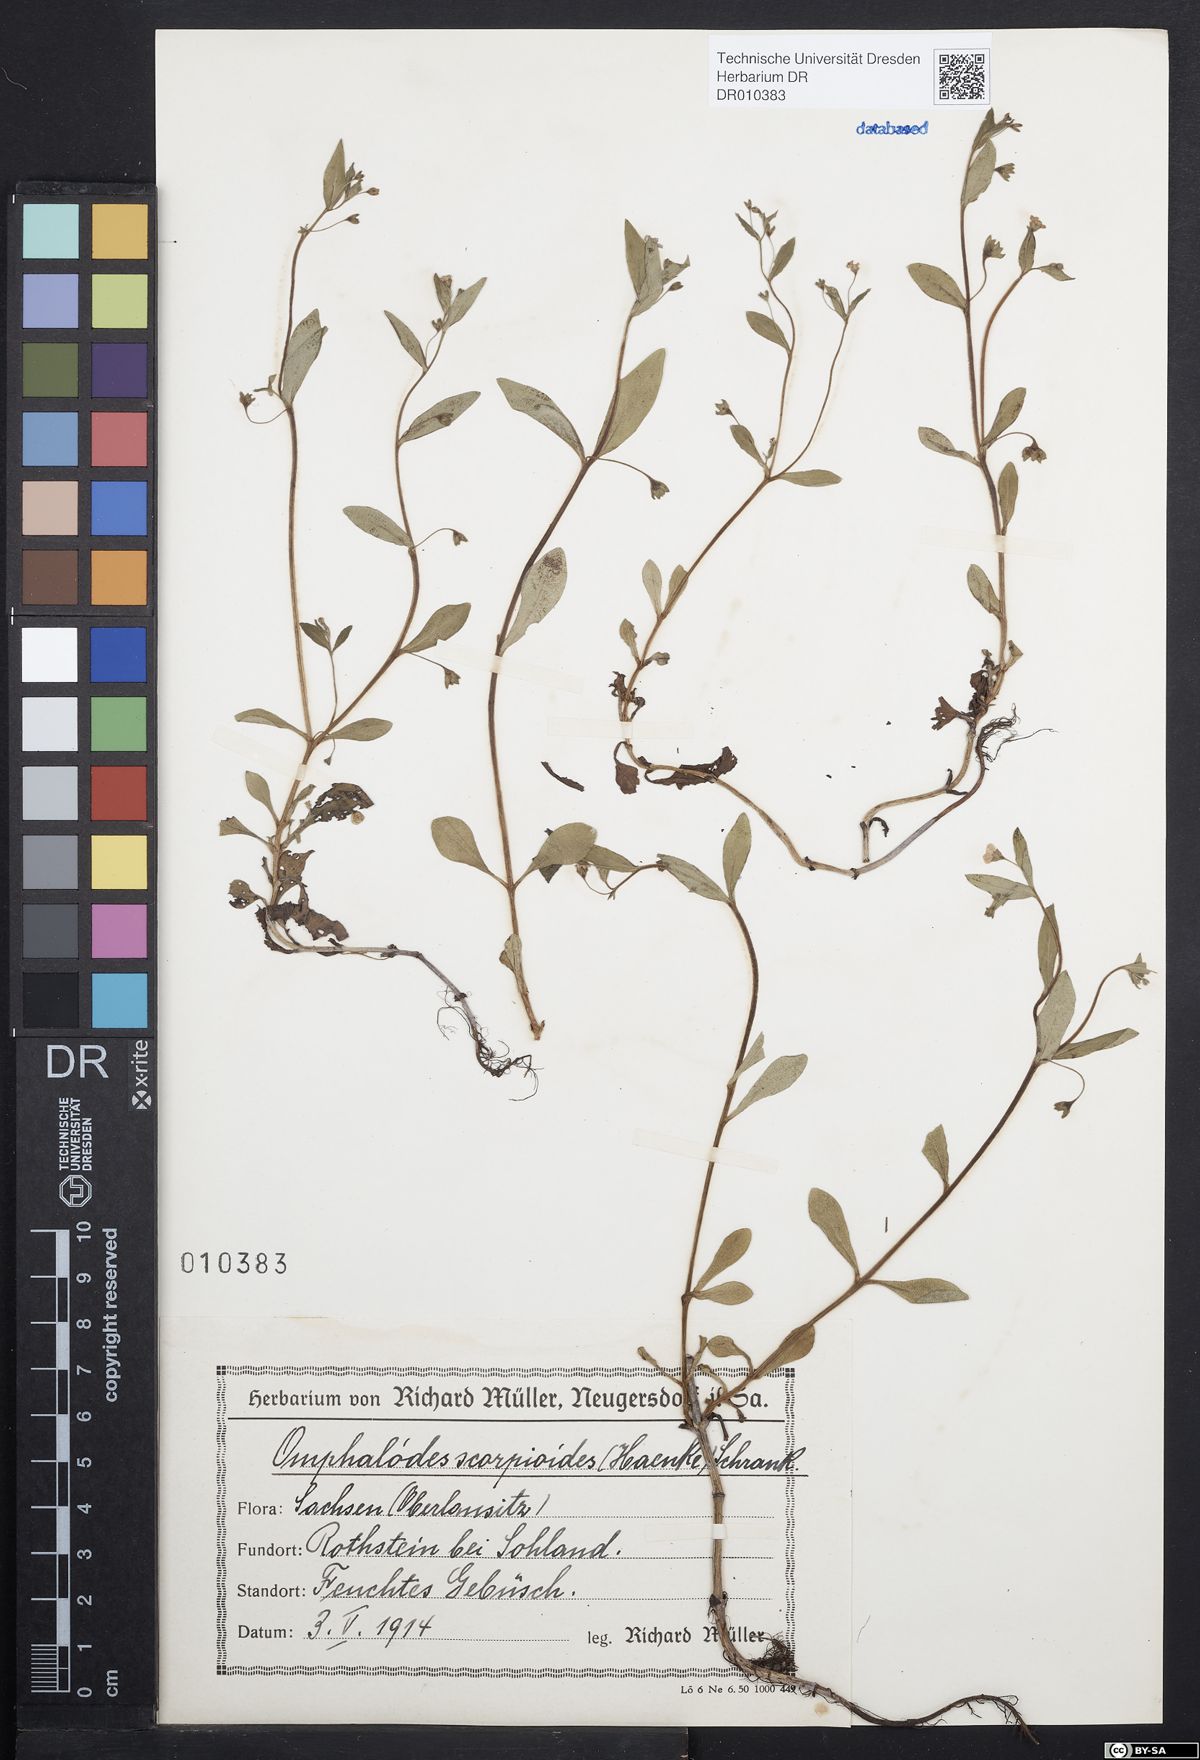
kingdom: Plantae
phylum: Tracheophyta
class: Magnoliopsida
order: Boraginales
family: Boraginaceae
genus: Memoremea
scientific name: Memoremea scorpioides
